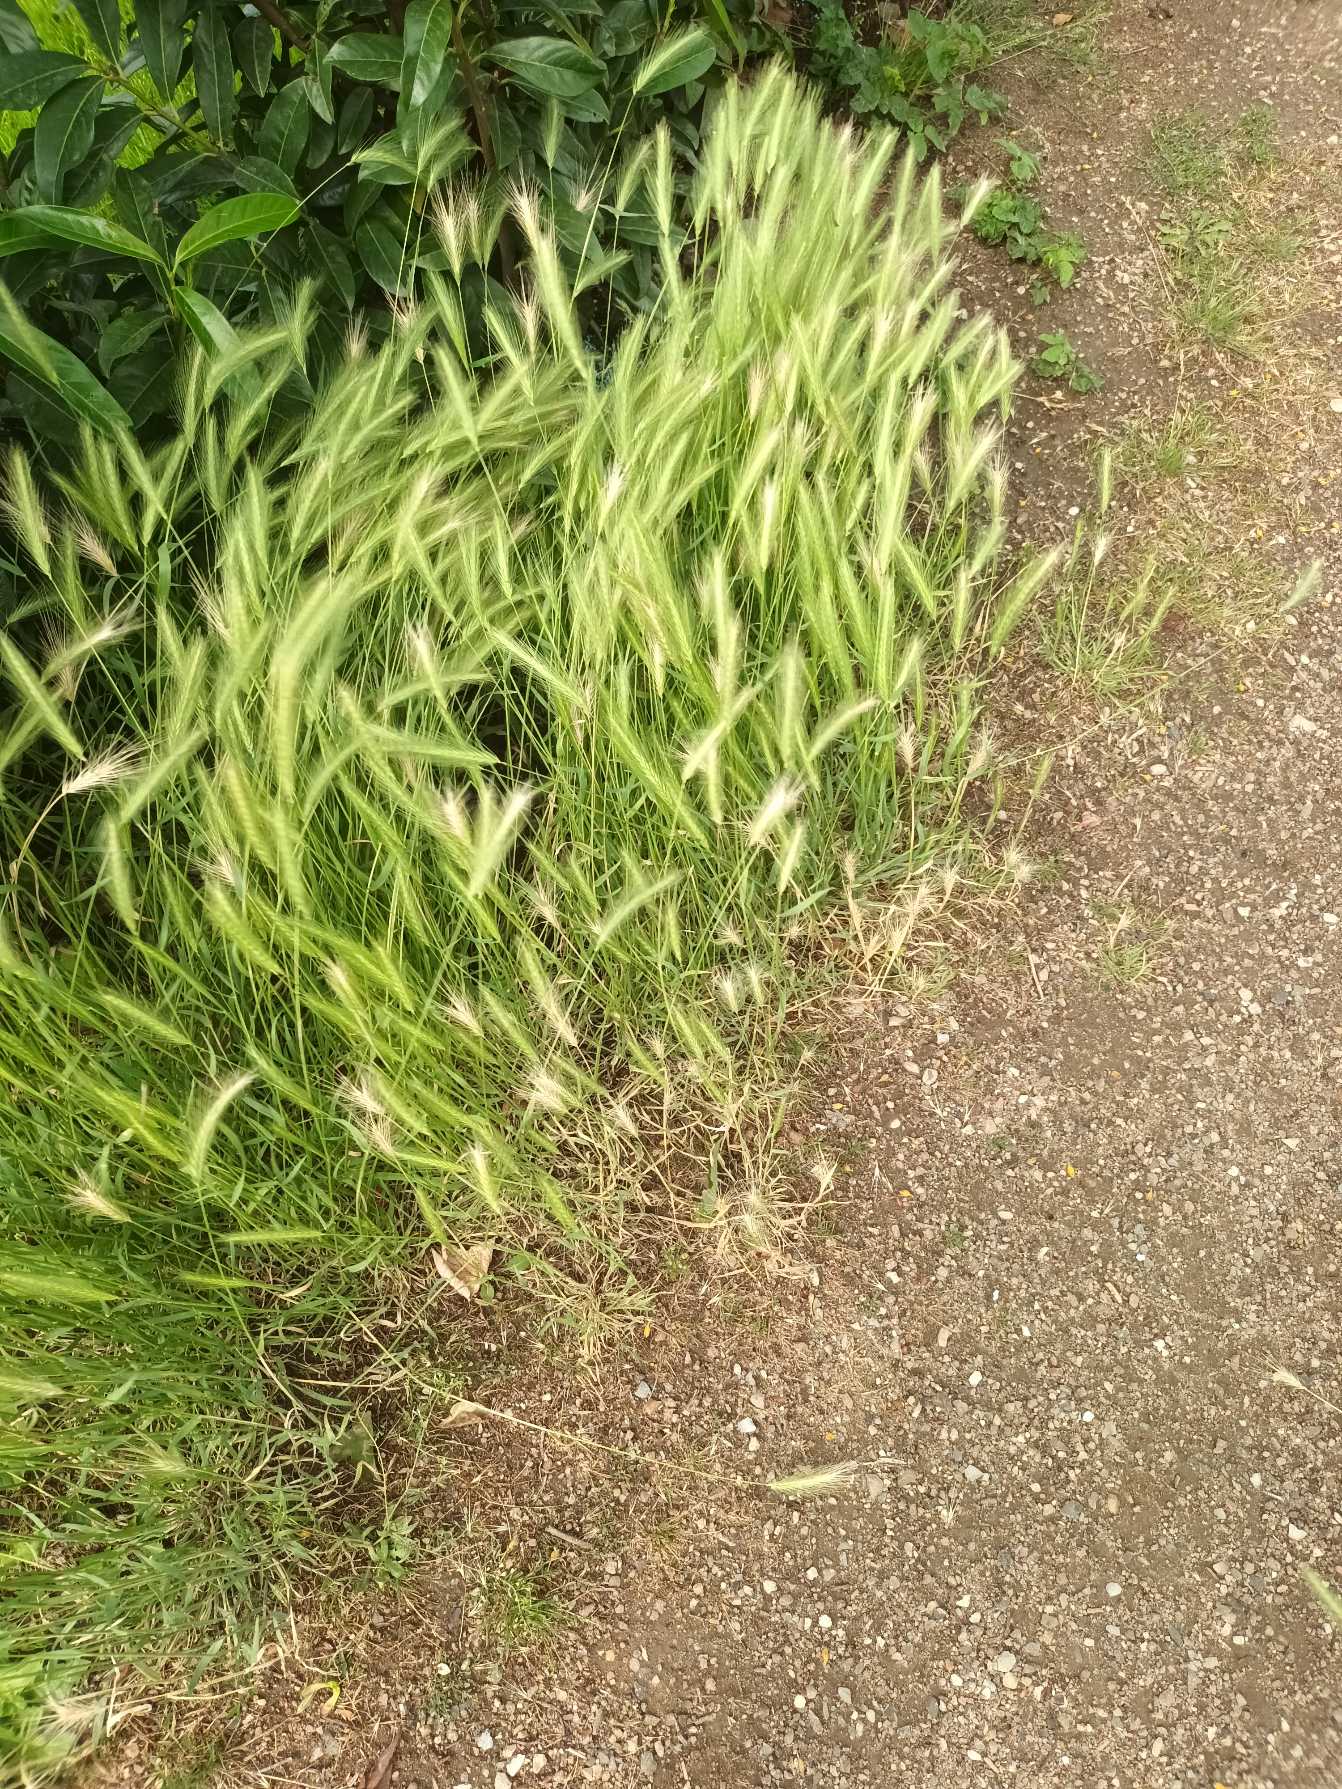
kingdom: Plantae
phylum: Tracheophyta
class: Liliopsida
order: Poales
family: Poaceae
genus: Hordeum
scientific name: Hordeum murinum
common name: Gold byg
